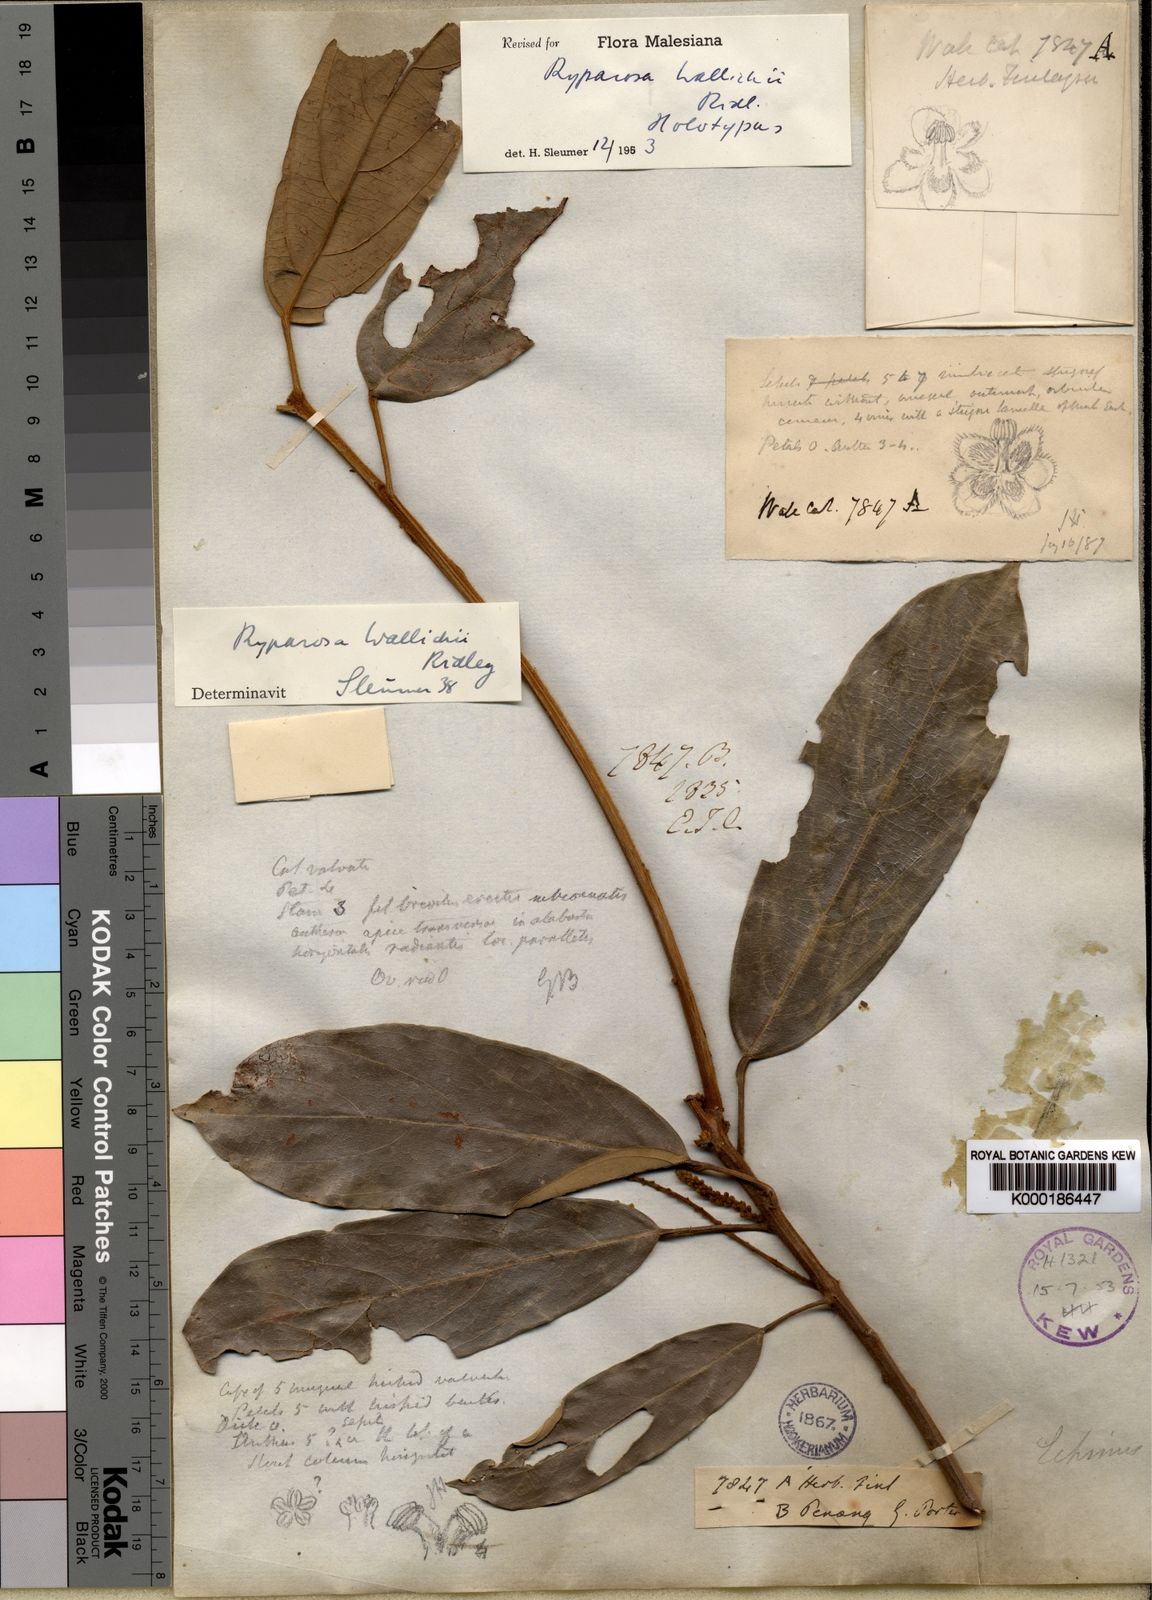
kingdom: Plantae
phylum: Tracheophyta
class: Magnoliopsida
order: Malpighiales
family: Achariaceae
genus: Ryparosa
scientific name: Ryparosa wallichii
